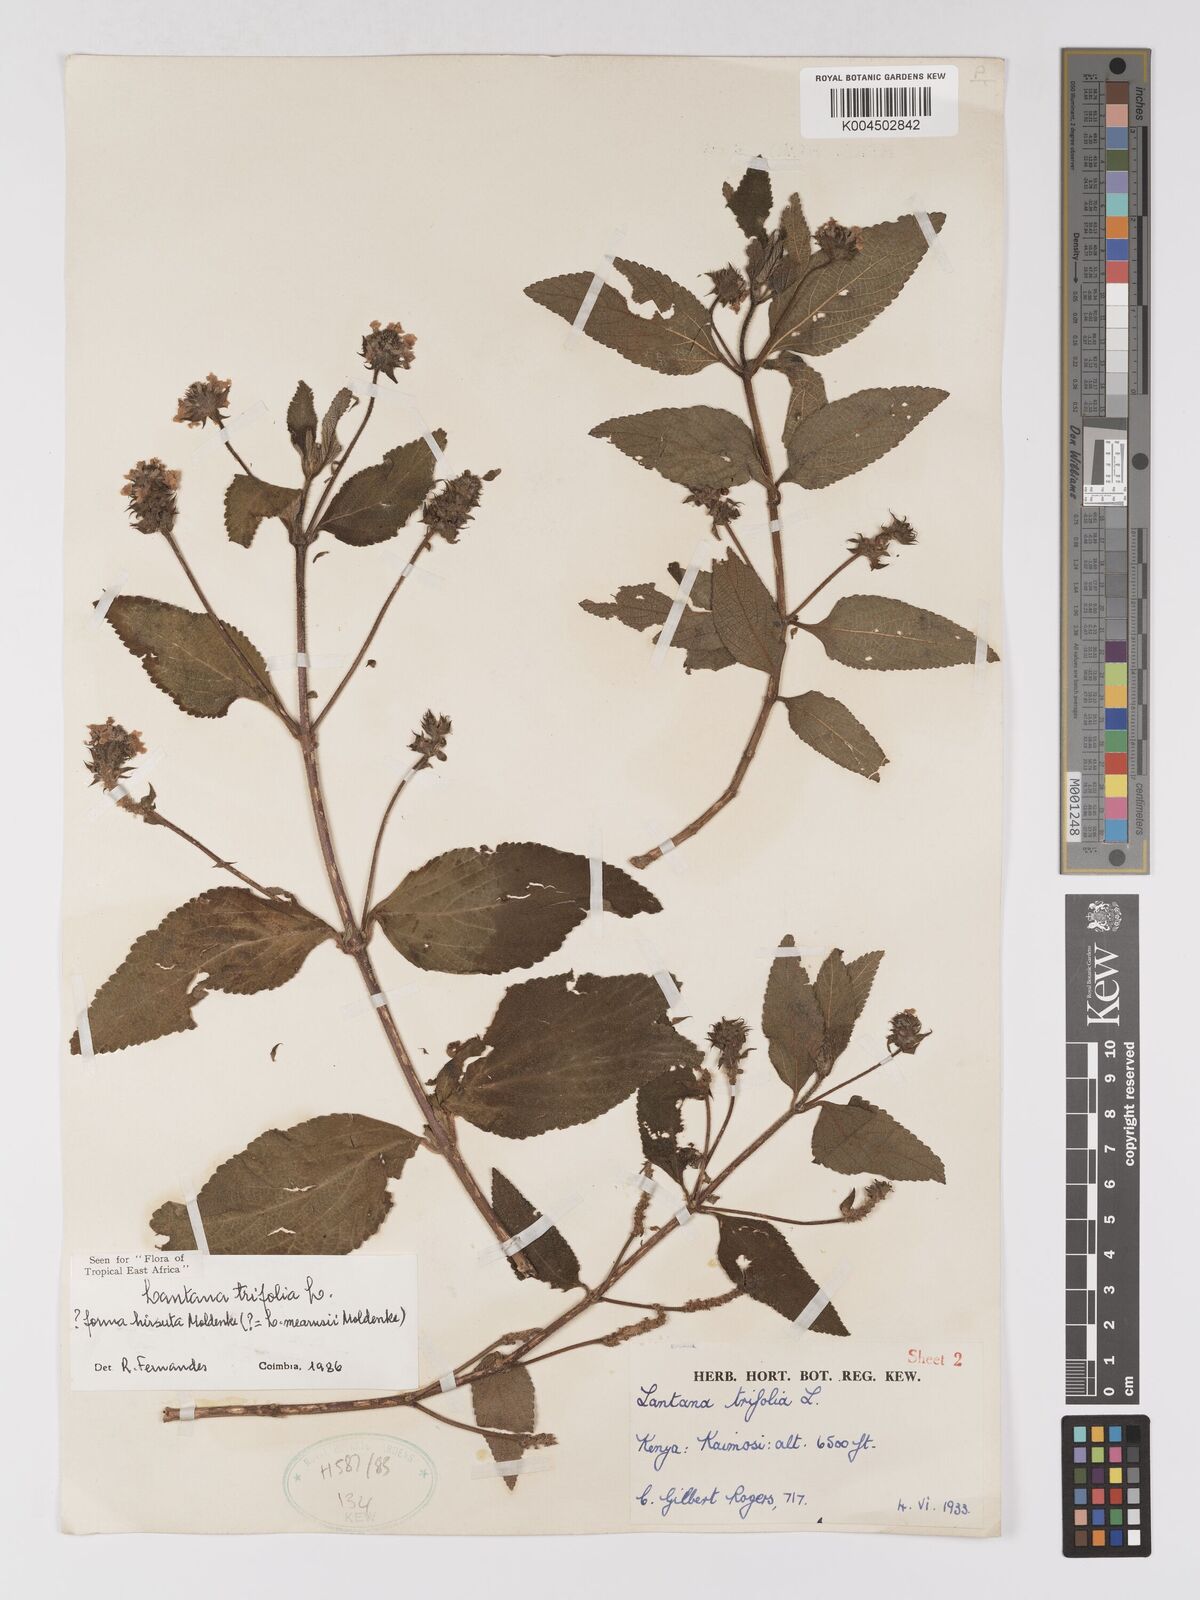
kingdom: Plantae
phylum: Tracheophyta
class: Magnoliopsida
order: Lamiales
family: Verbenaceae
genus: Lantana
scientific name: Lantana trifolia
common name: Sweet-sage
